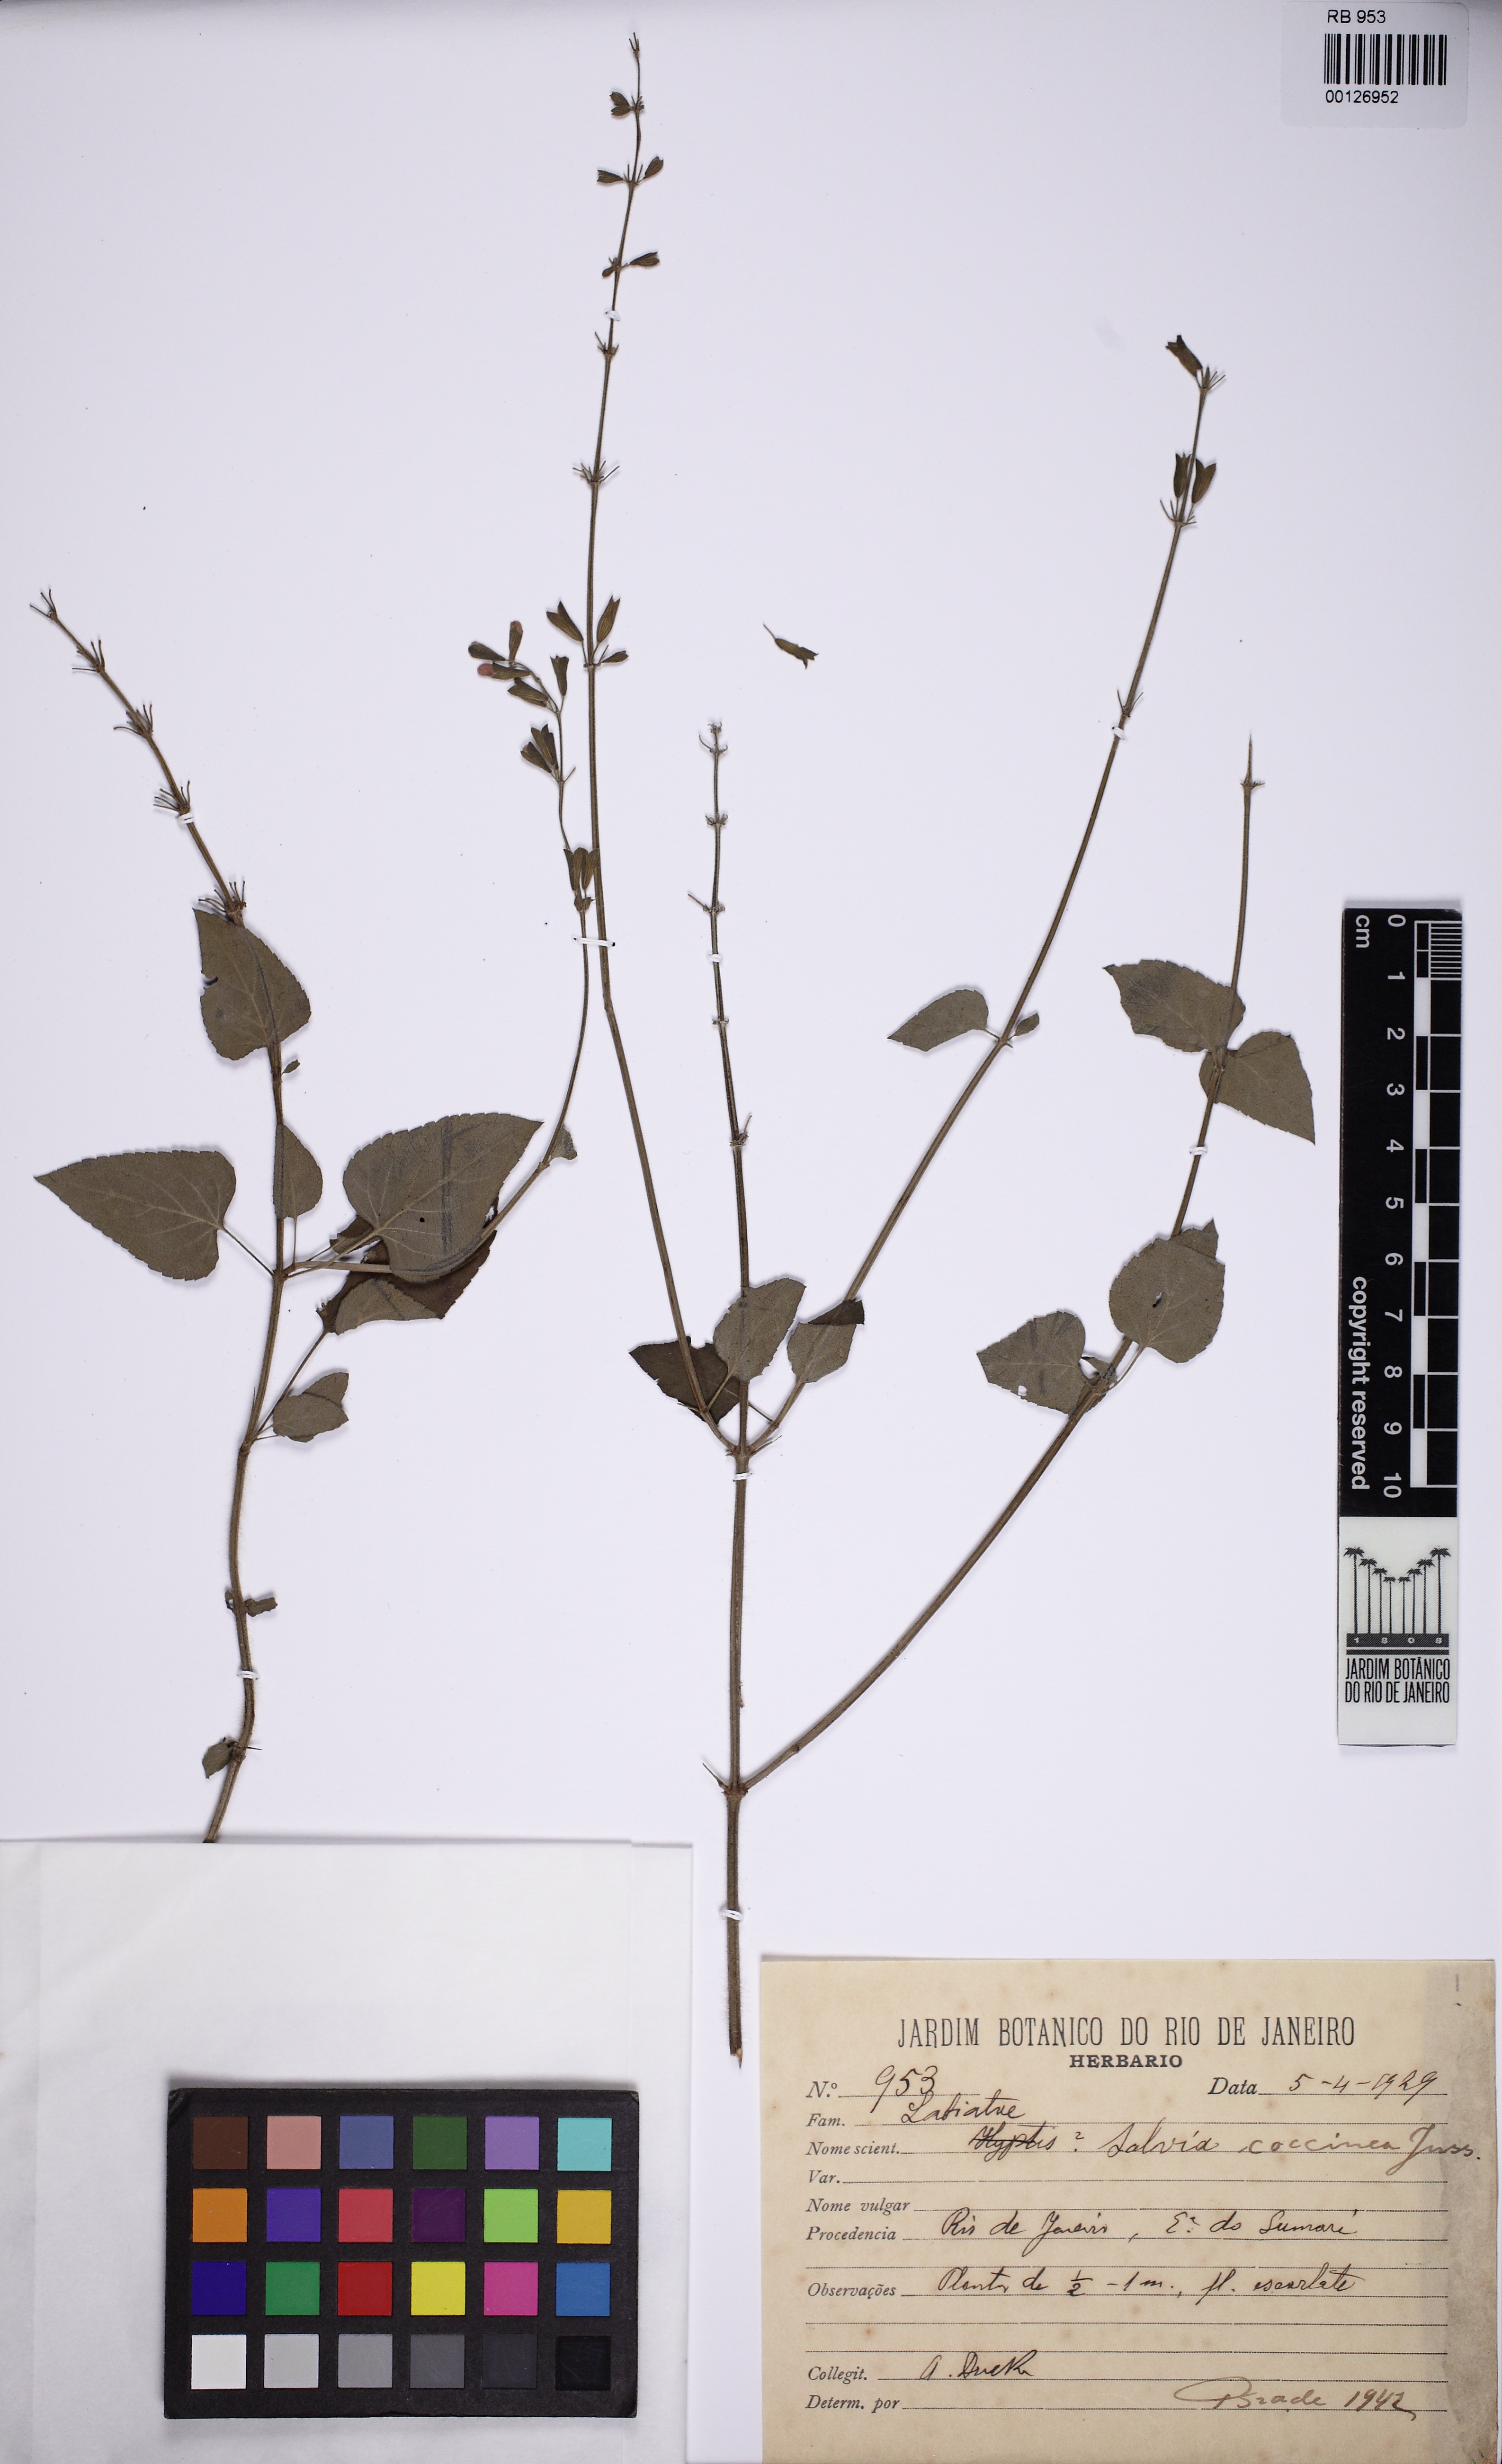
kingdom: Plantae
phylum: Tracheophyta
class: Magnoliopsida
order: Lamiales
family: Lamiaceae
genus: Salvia
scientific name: Salvia coccinea
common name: Blood sage
